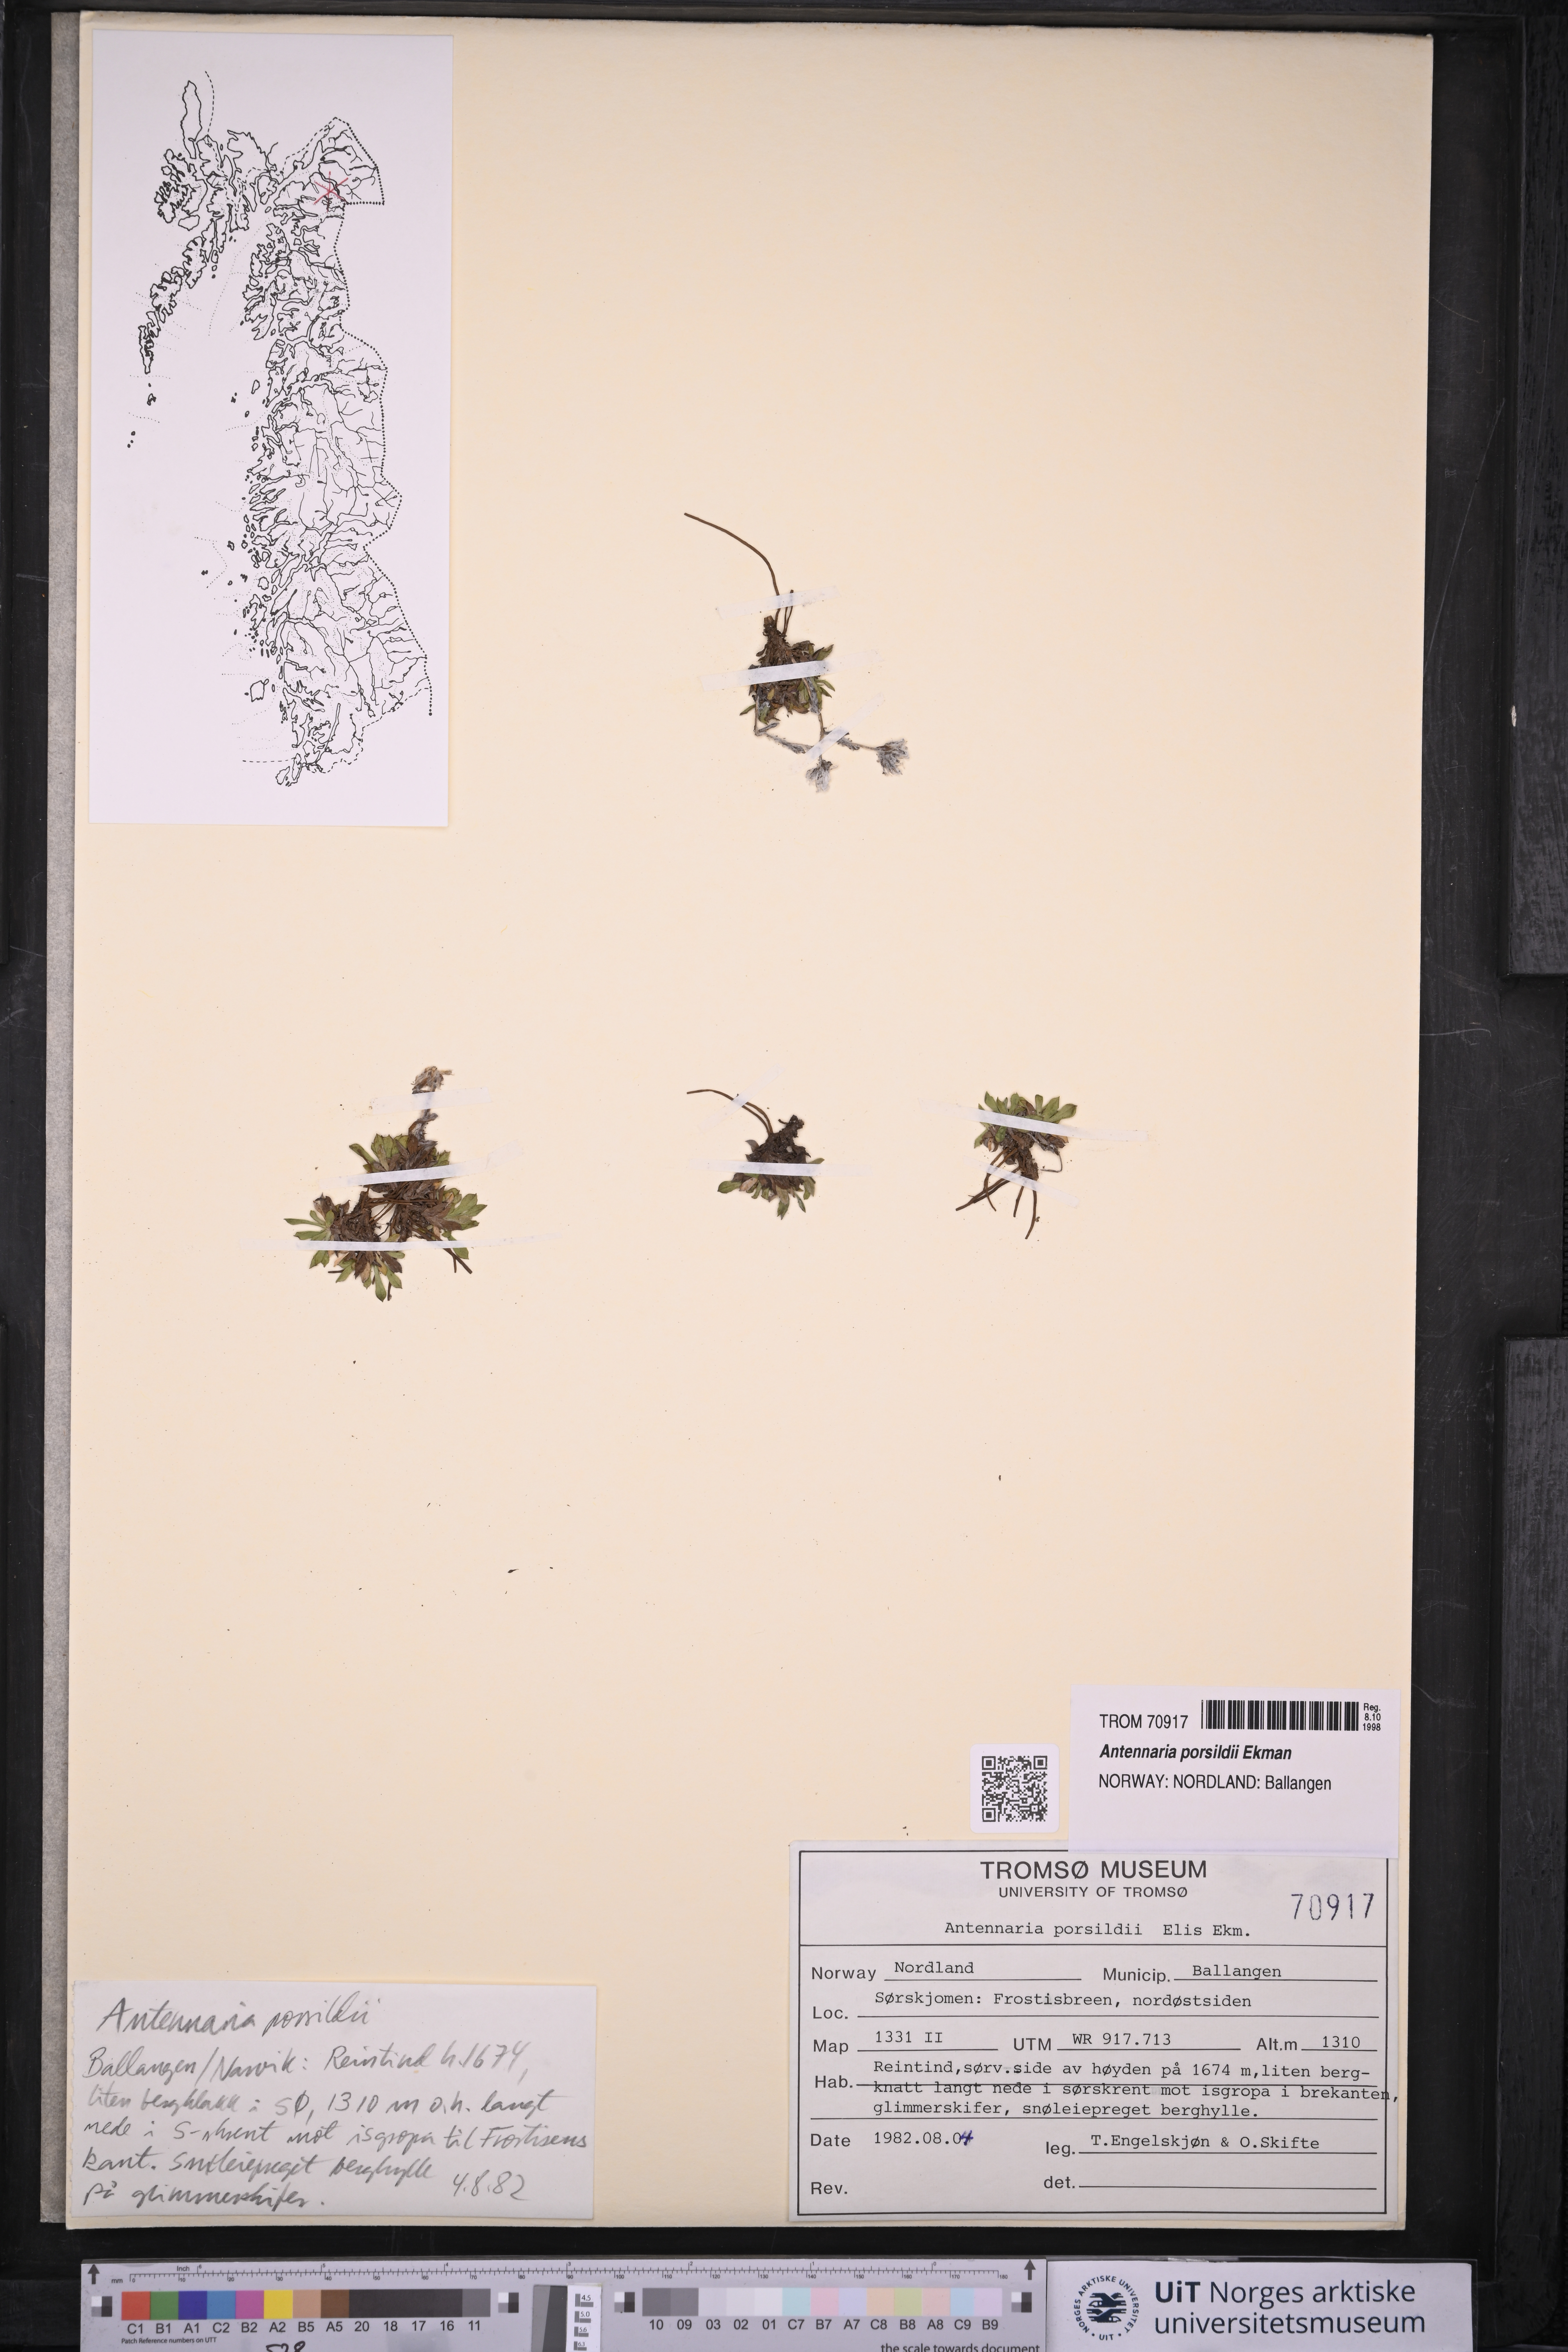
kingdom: Plantae
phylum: Tracheophyta
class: Magnoliopsida
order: Asterales
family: Asteraceae
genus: Antennaria
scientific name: Antennaria porsildii
